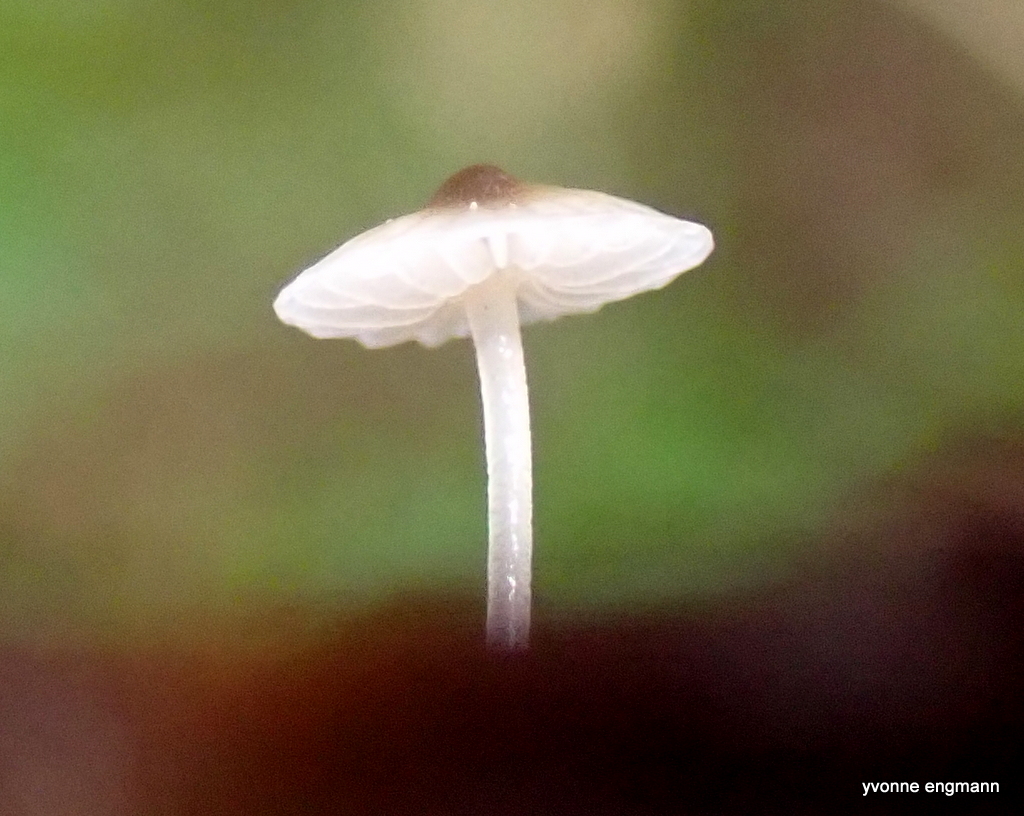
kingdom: Fungi
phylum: Basidiomycota
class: Agaricomycetes
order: Agaricales
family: Porotheleaceae
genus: Phloeomana
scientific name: Phloeomana hiemalis
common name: sen huesvamp
